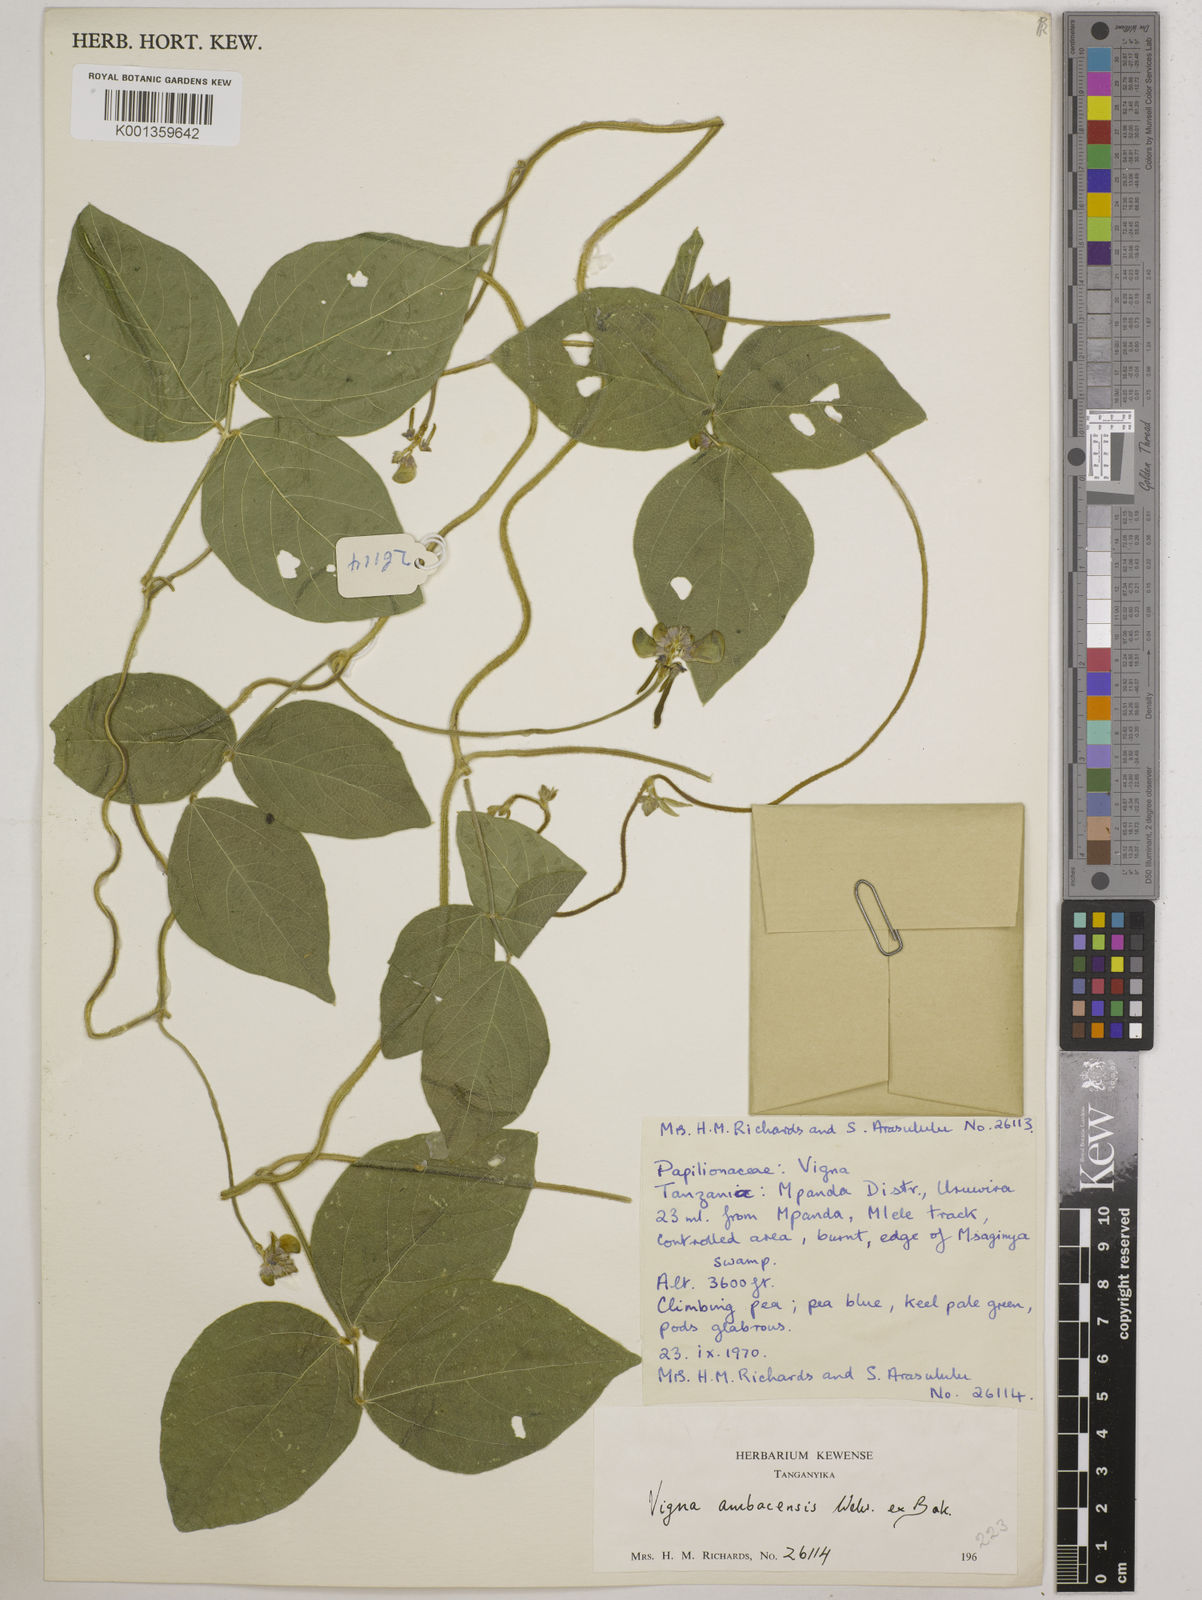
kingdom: Plantae
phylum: Tracheophyta
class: Magnoliopsida
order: Fabales
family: Fabaceae
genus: Vigna
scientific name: Vigna ambacensis
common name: Tsarkiyan zomo
